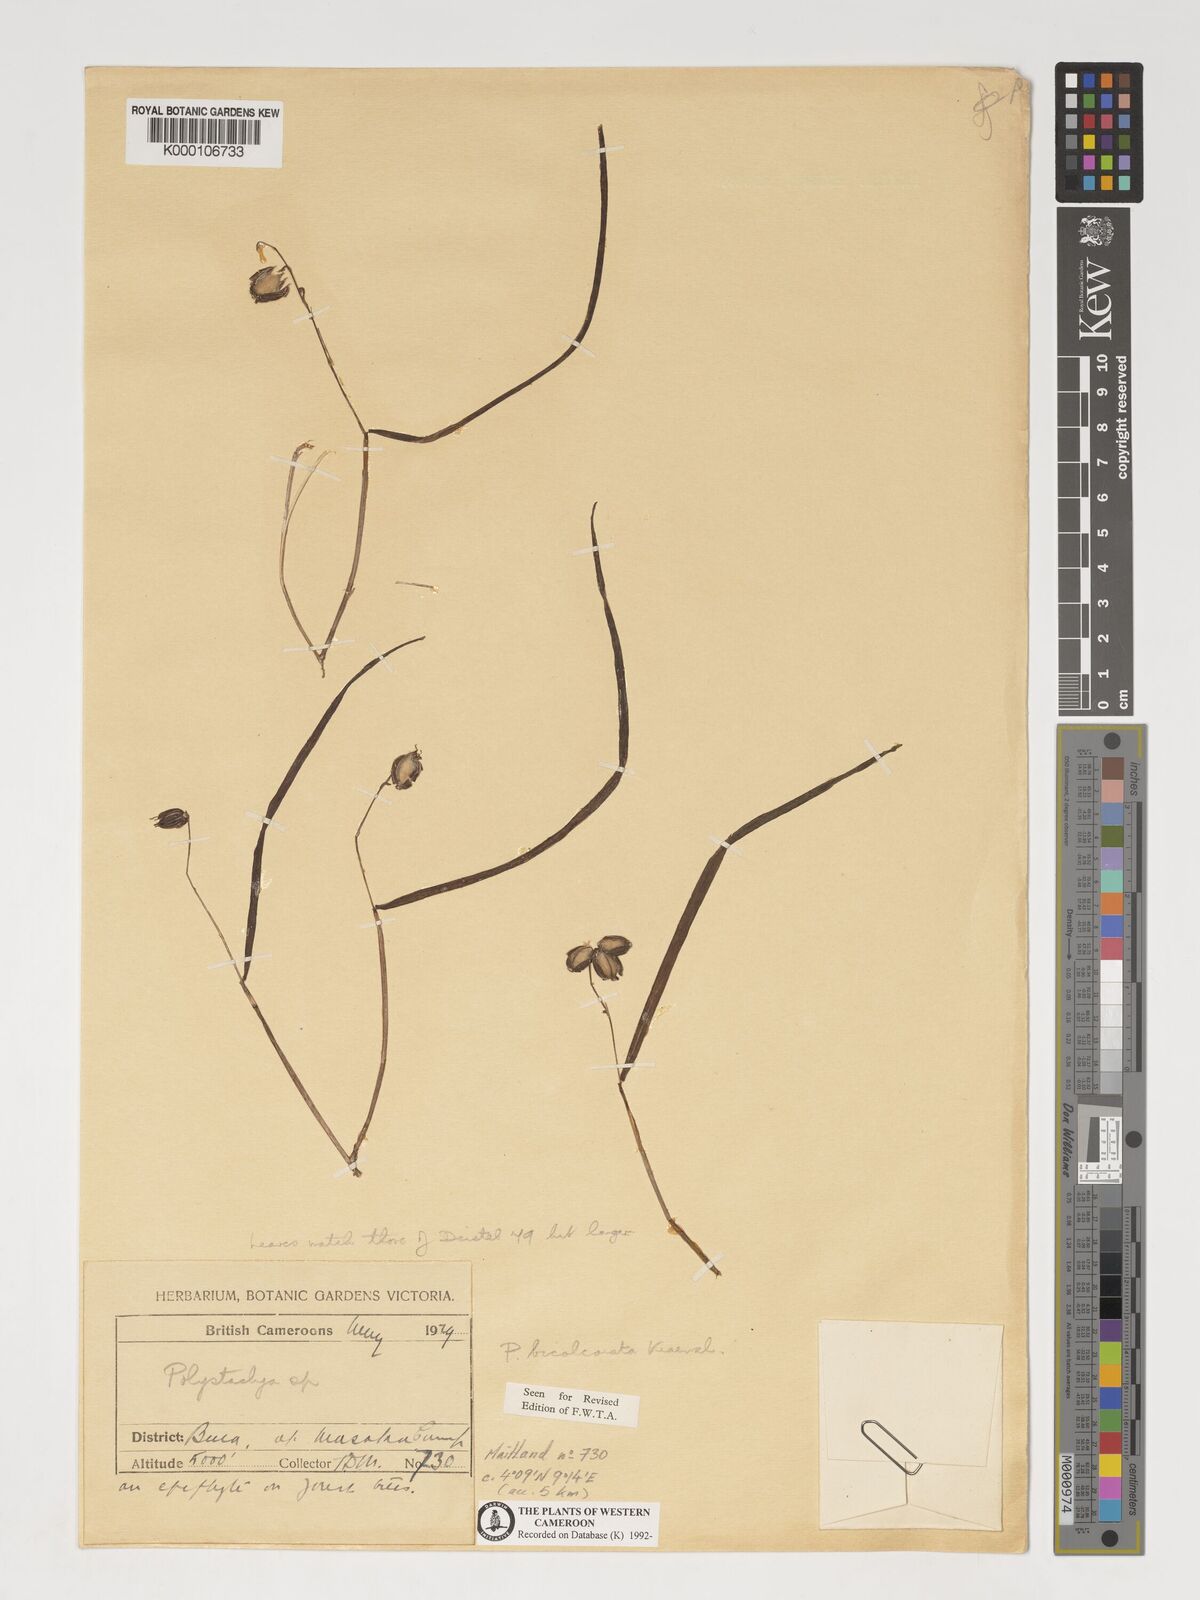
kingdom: Plantae
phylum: Tracheophyta
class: Liliopsida
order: Asparagales
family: Orchidaceae
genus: Polystachya
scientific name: Polystachya bicalcarata
